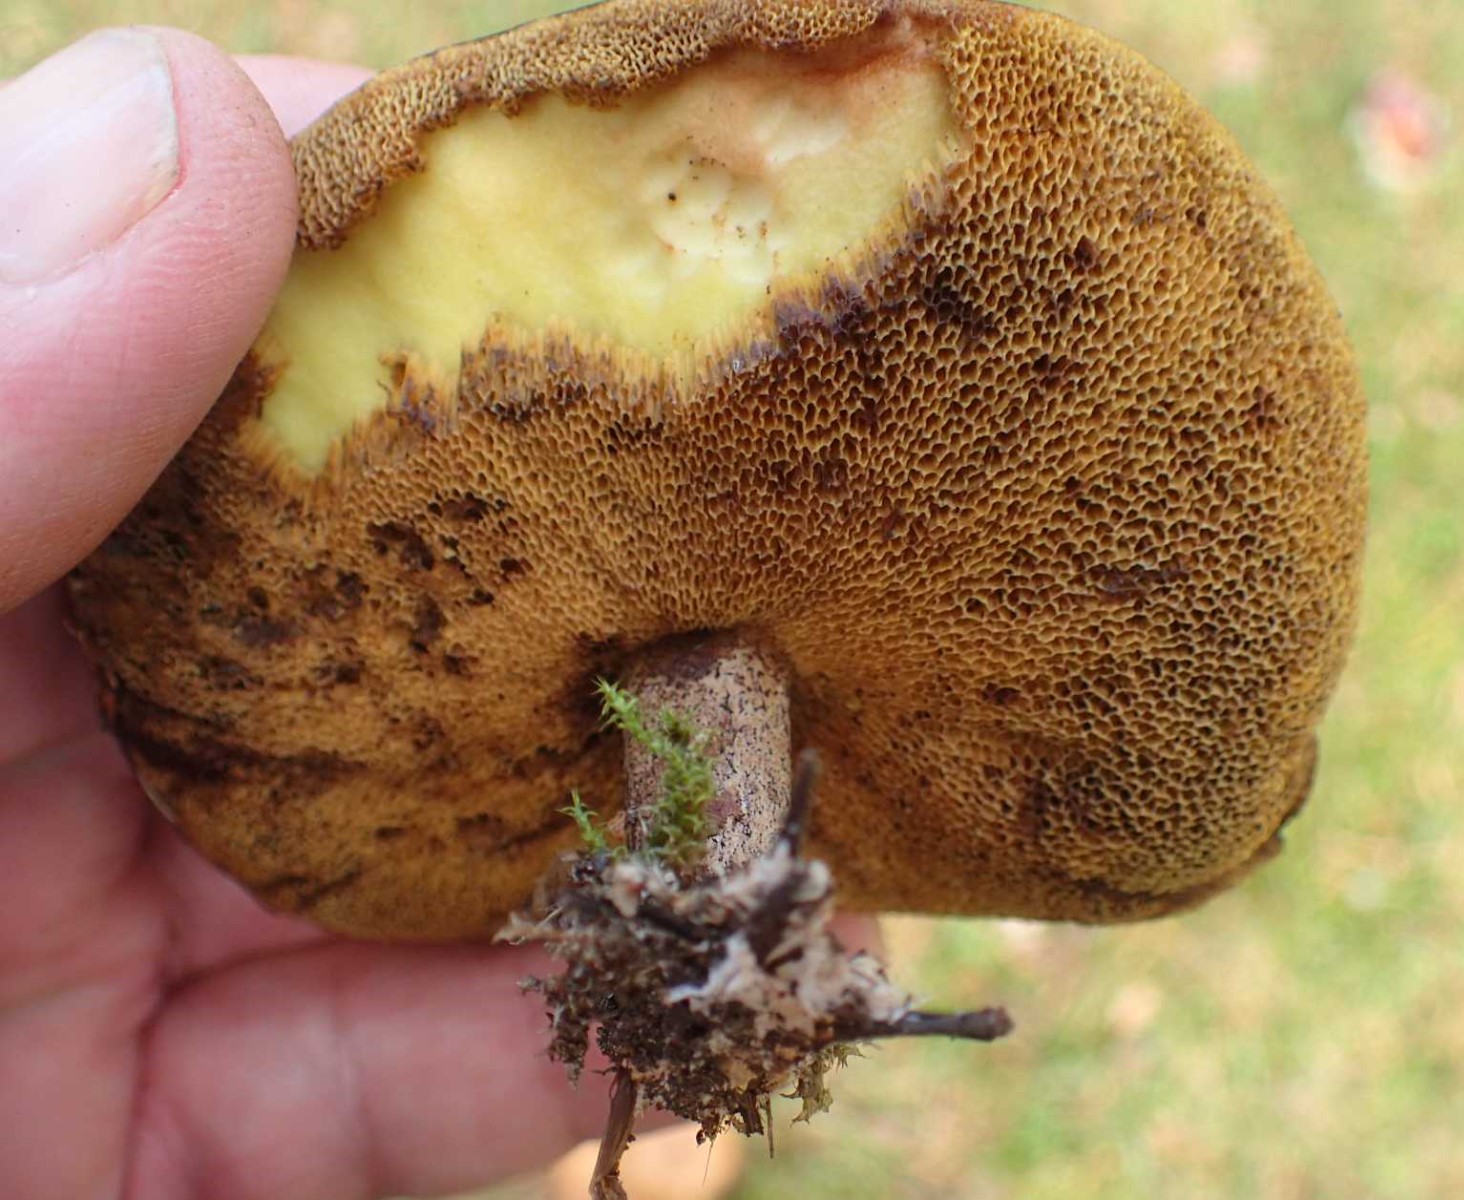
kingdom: Fungi
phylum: Basidiomycota
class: Agaricomycetes
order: Boletales
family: Suillaceae
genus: Suillus
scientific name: Suillus bovinus
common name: grovporet slimrørhat
